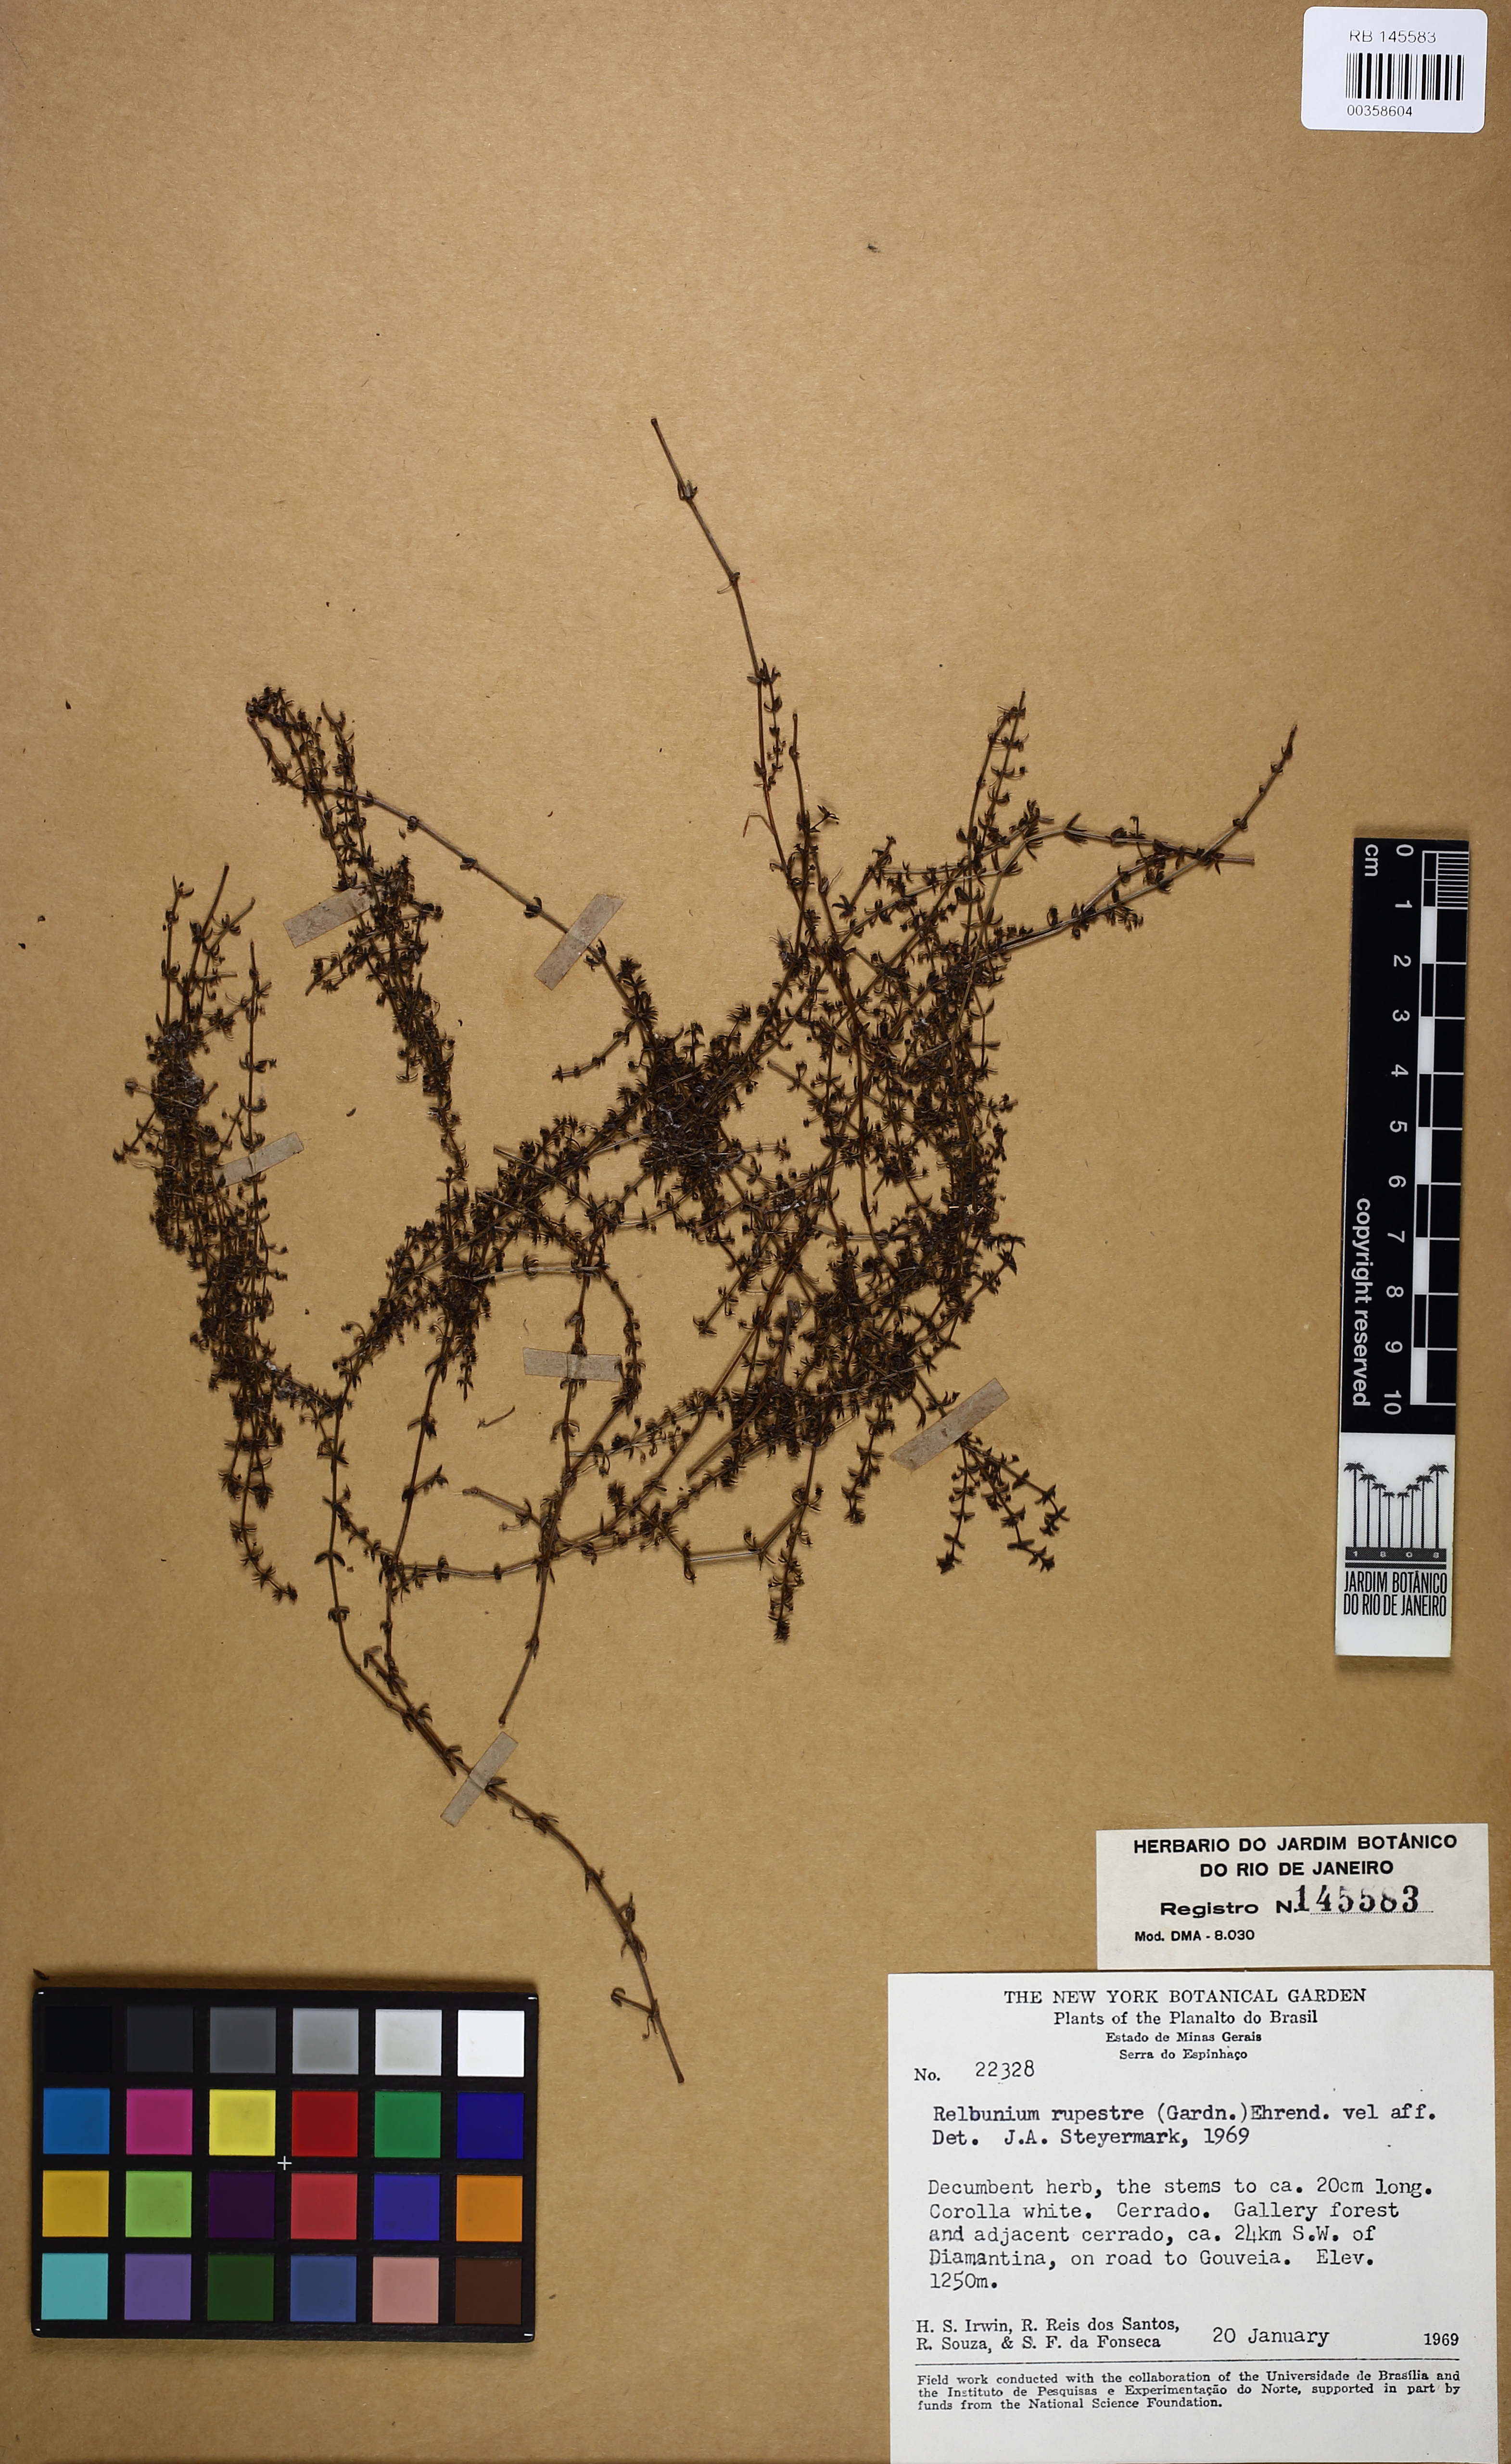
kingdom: Plantae
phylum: Tracheophyta
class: Magnoliopsida
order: Gentianales
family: Rubiaceae
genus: Galium
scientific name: Galium hypocarpium
